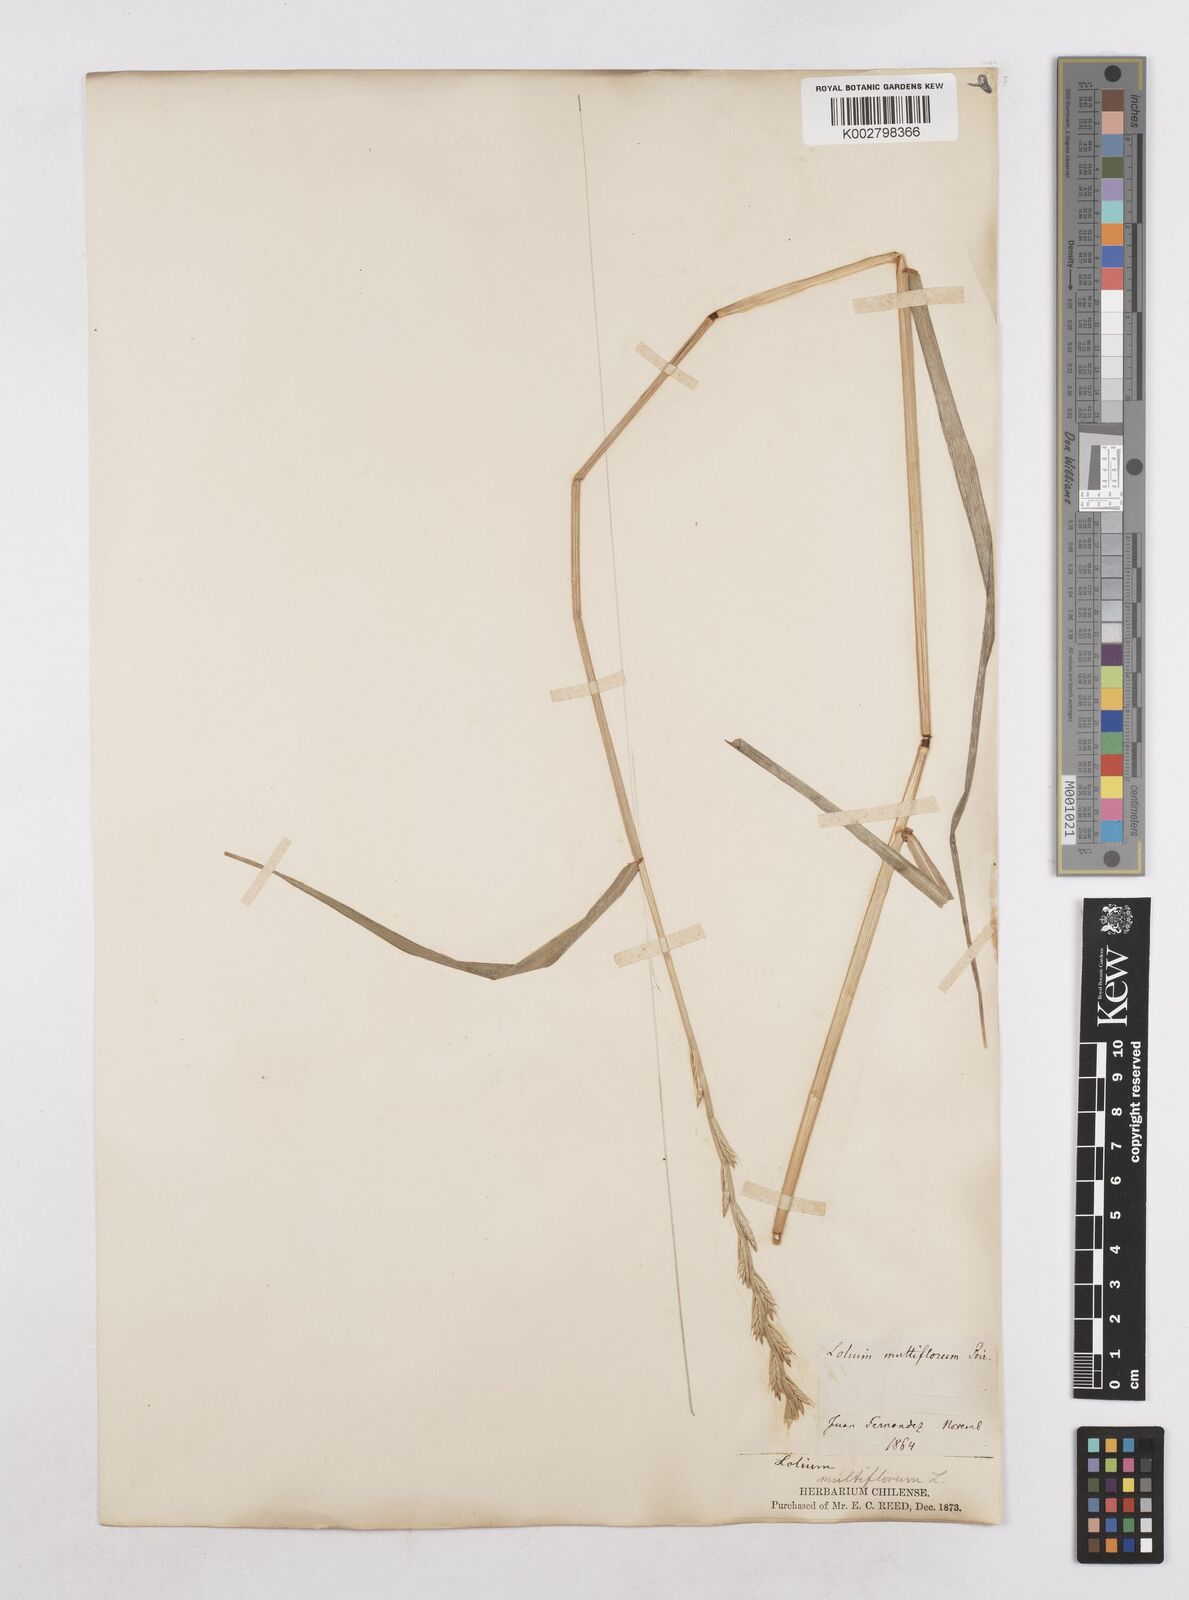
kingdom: Plantae
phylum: Tracheophyta
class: Liliopsida
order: Poales
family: Poaceae
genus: Lolium
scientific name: Lolium multiflorum
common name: Annual ryegrass
